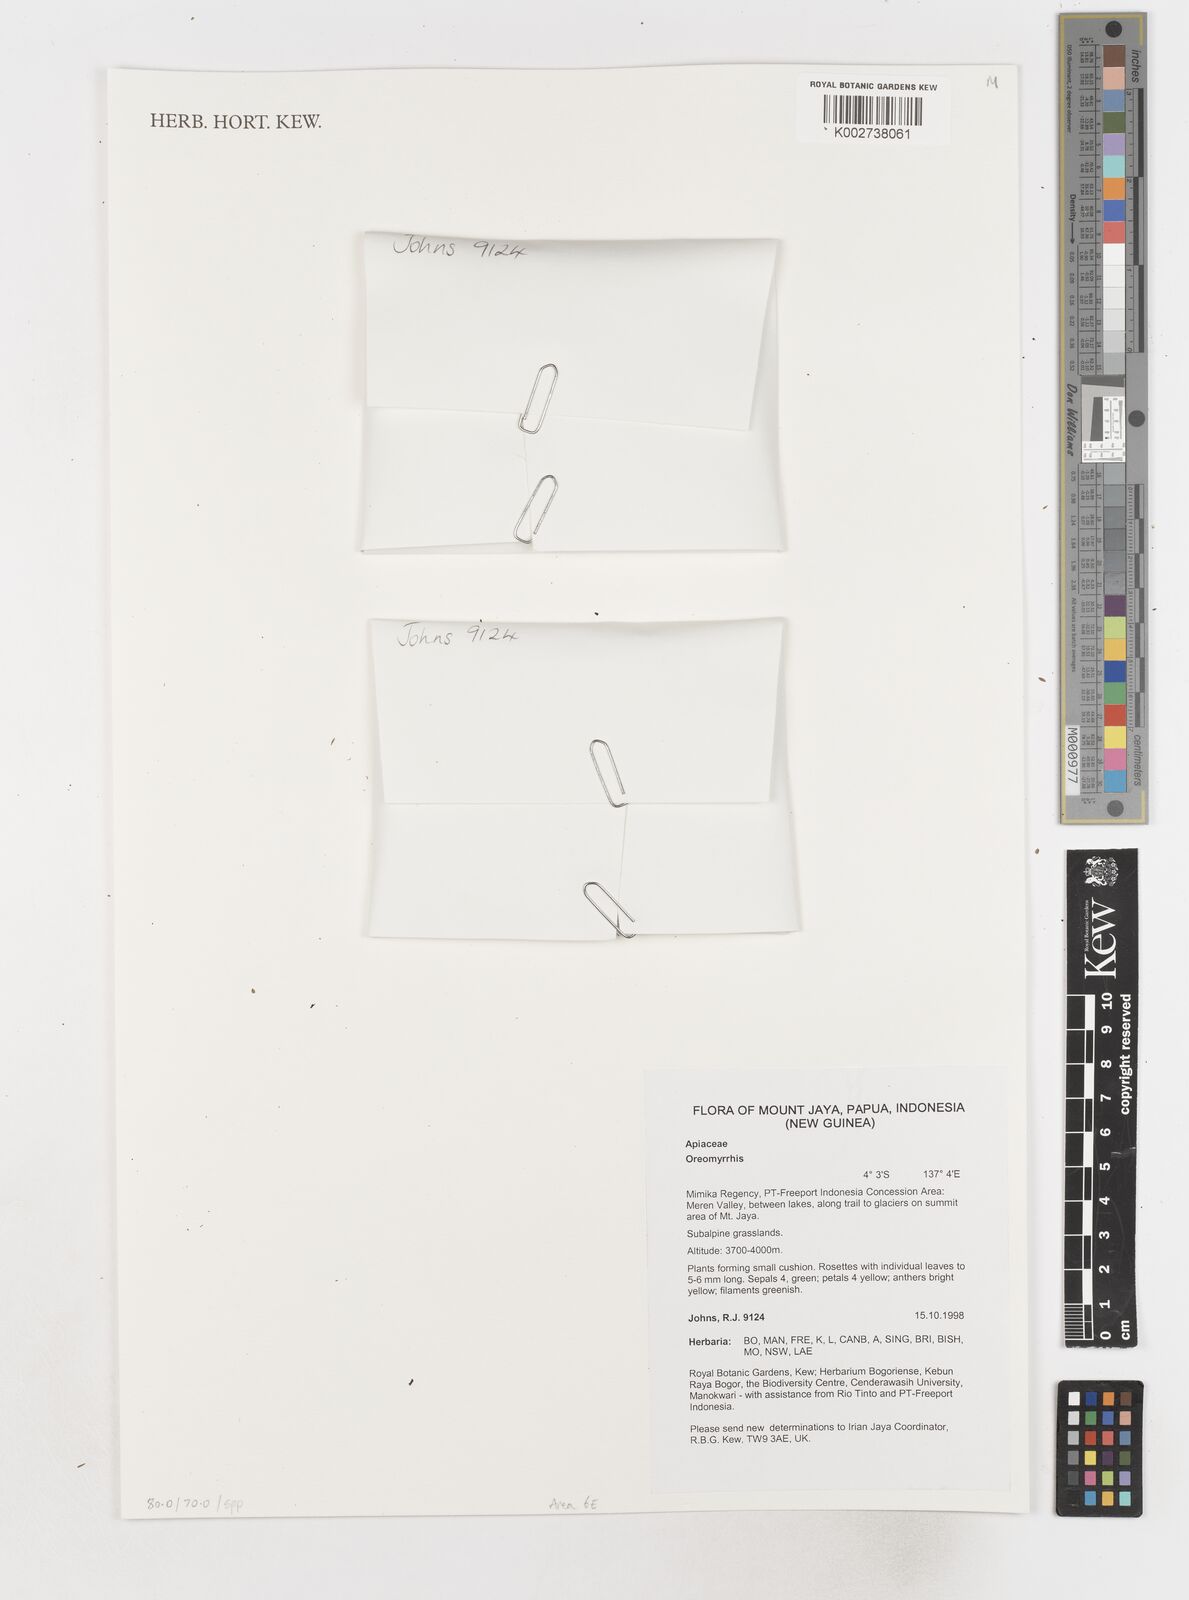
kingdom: Plantae
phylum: Tracheophyta
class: Magnoliopsida
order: Apiales
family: Apiaceae
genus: Chaerophyllum
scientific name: Chaerophyllum
